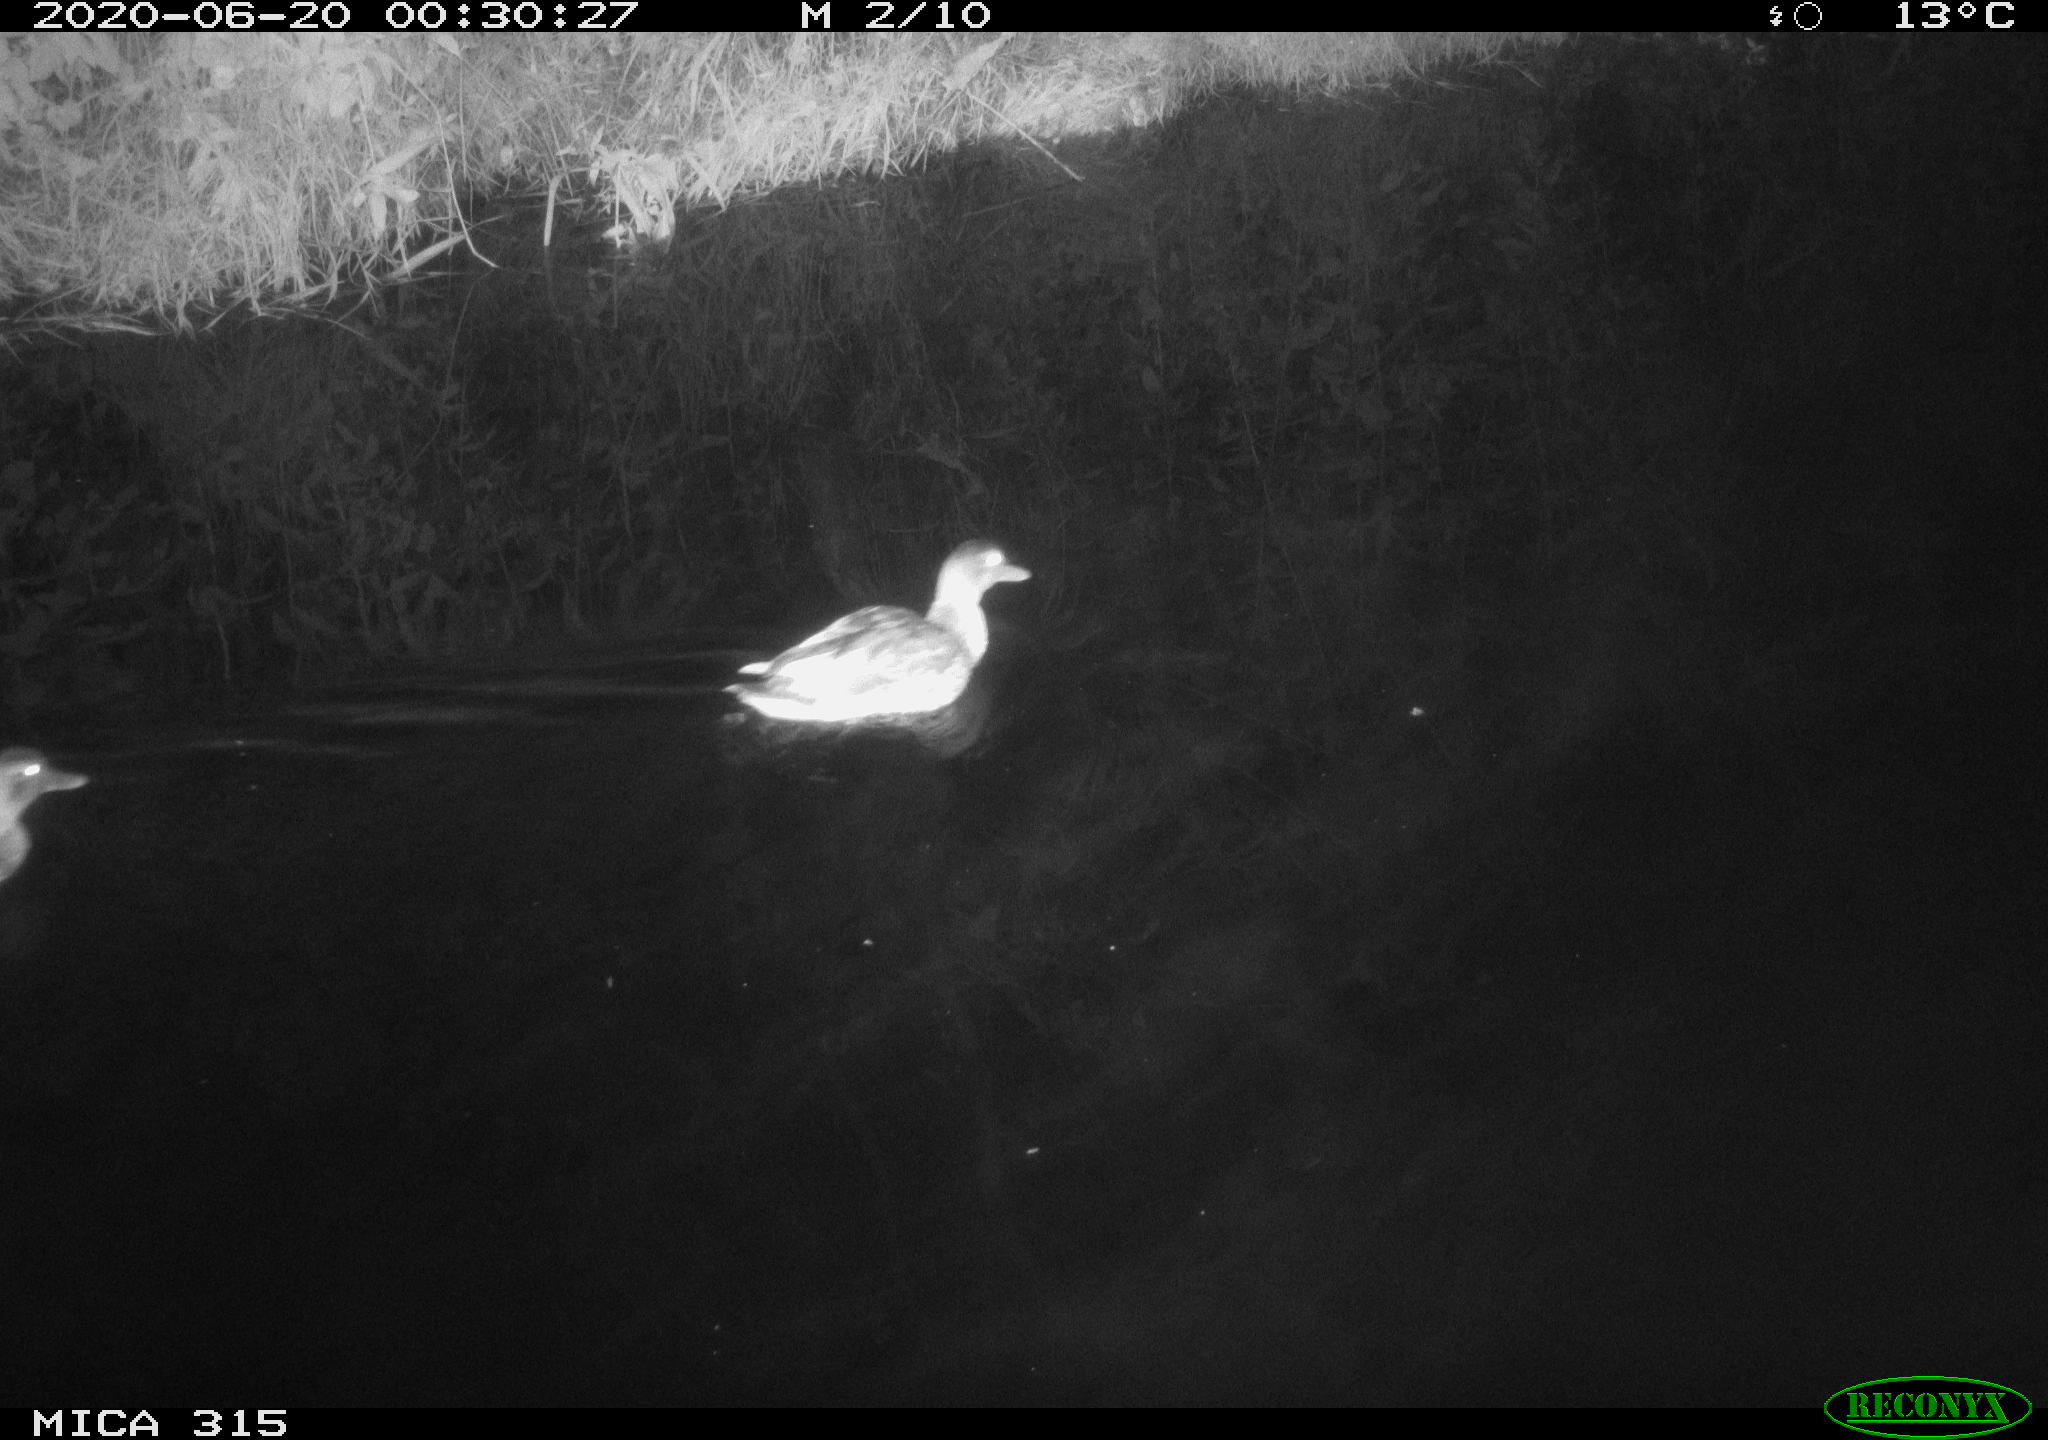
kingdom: Animalia
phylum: Chordata
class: Aves
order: Anseriformes
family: Anatidae
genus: Anas
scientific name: Anas platyrhynchos
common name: Mallard
